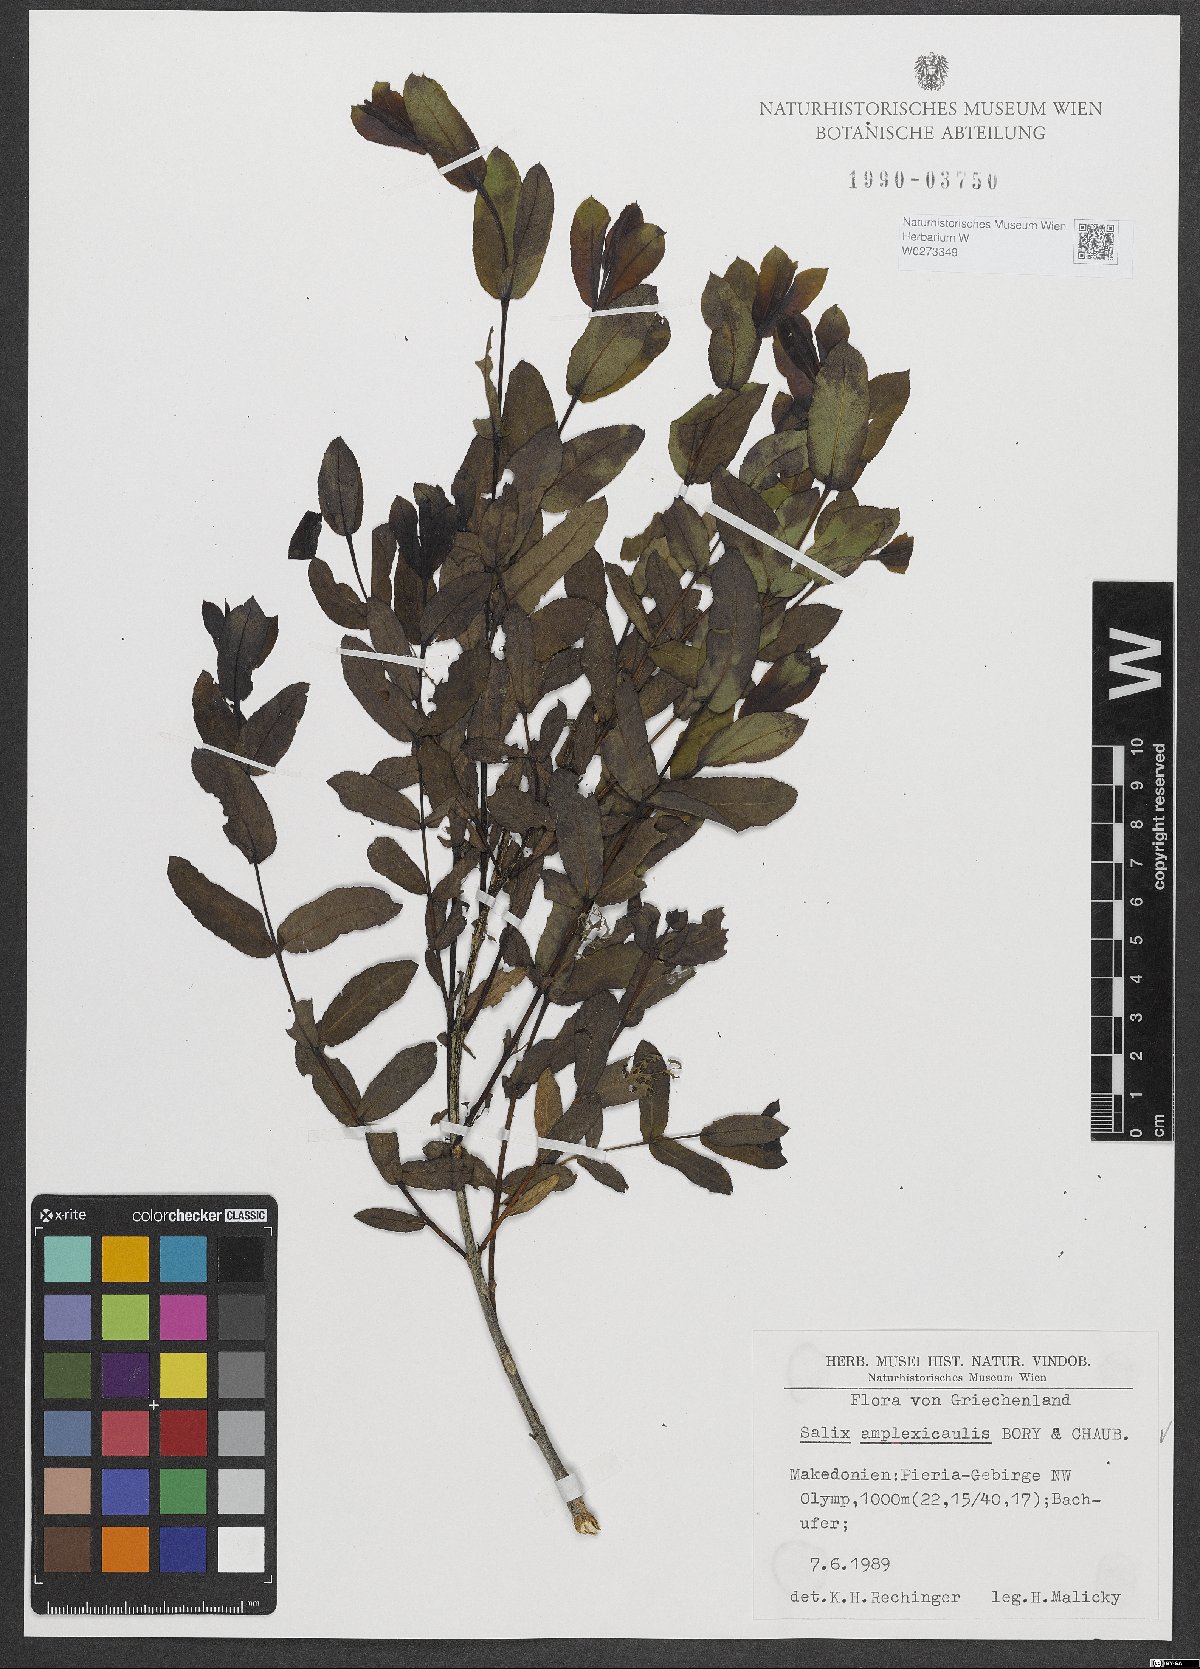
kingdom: Plantae
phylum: Tracheophyta
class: Magnoliopsida
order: Malpighiales
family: Salicaceae
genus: Salix
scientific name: Salix amplexicaulis
